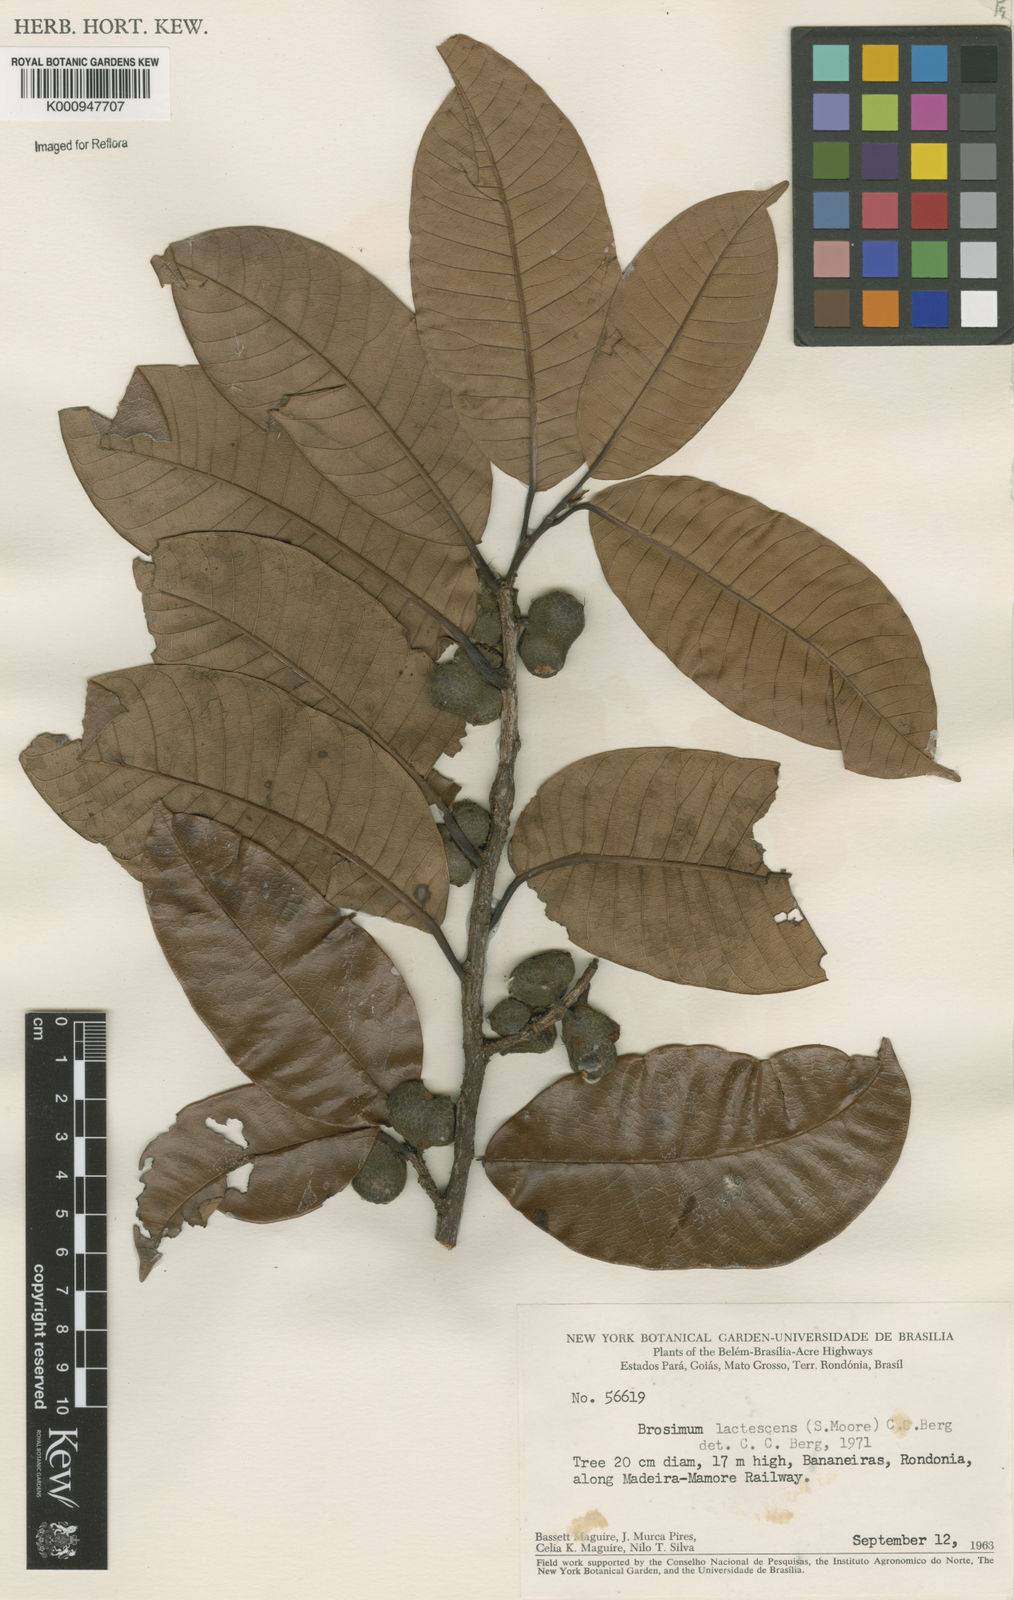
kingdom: Plantae
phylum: Tracheophyta
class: Magnoliopsida
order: Rosales
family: Moraceae
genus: Brosimum
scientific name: Brosimum lactescens
